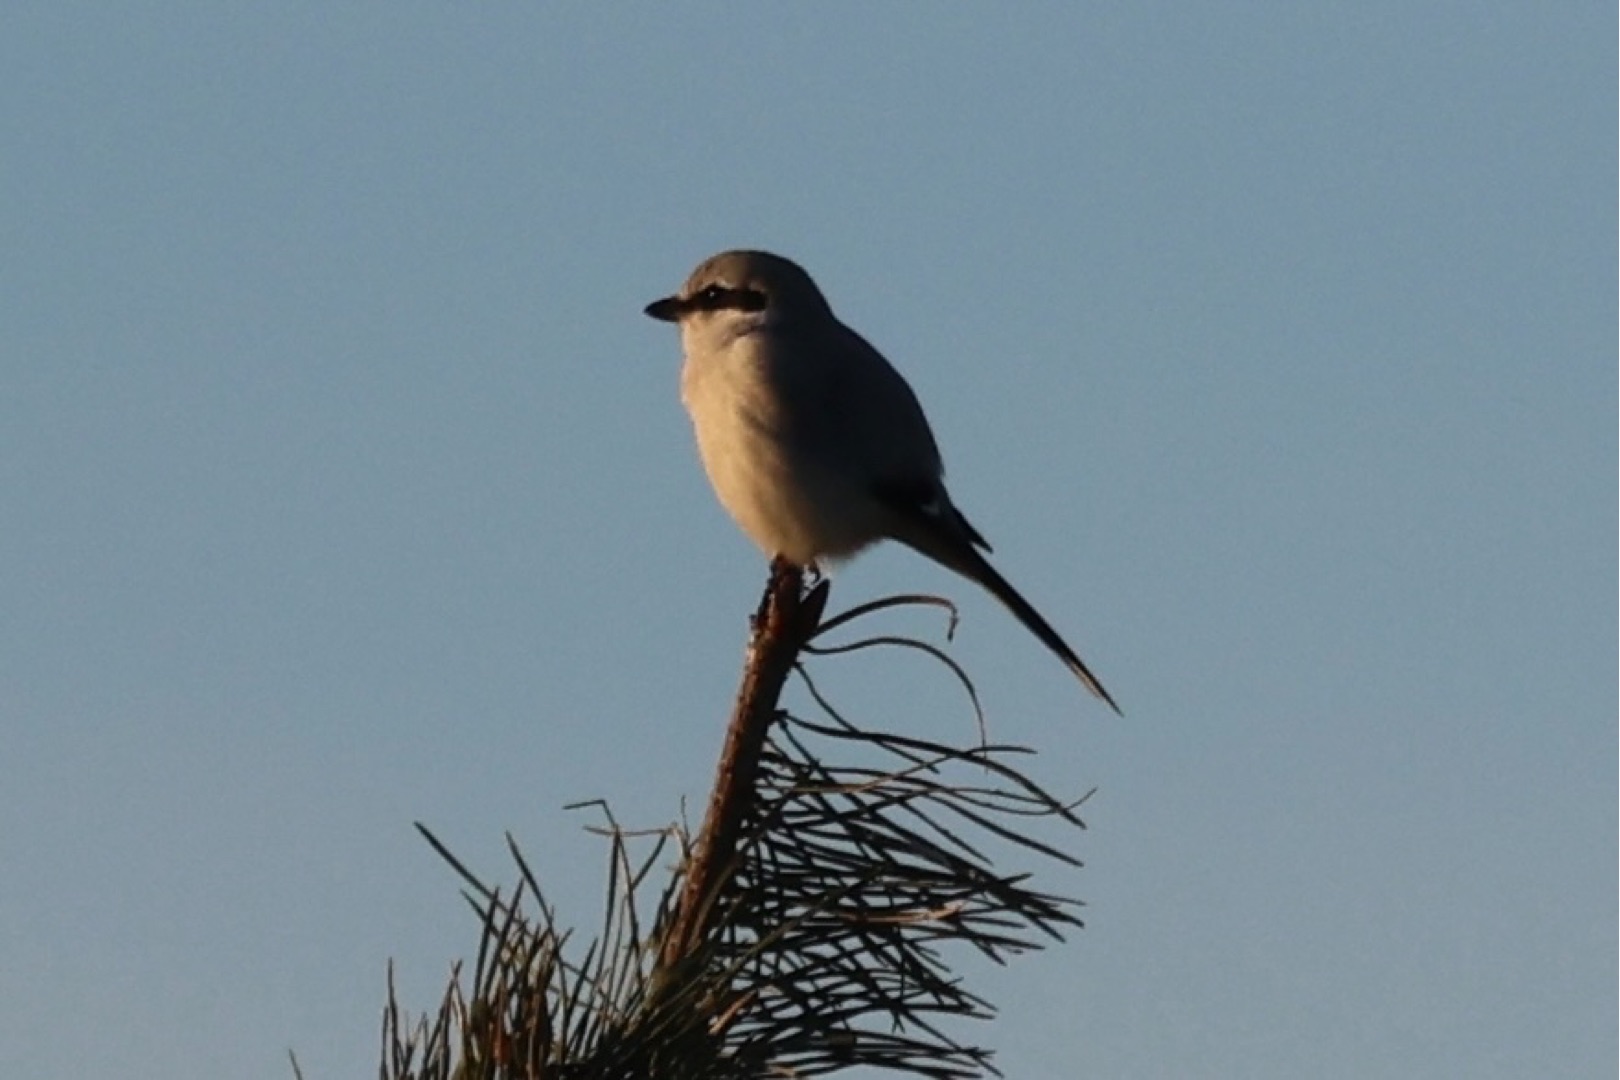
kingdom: Animalia
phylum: Chordata
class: Aves
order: Passeriformes
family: Laniidae
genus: Lanius
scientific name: Lanius excubitor
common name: Stor tornskade
